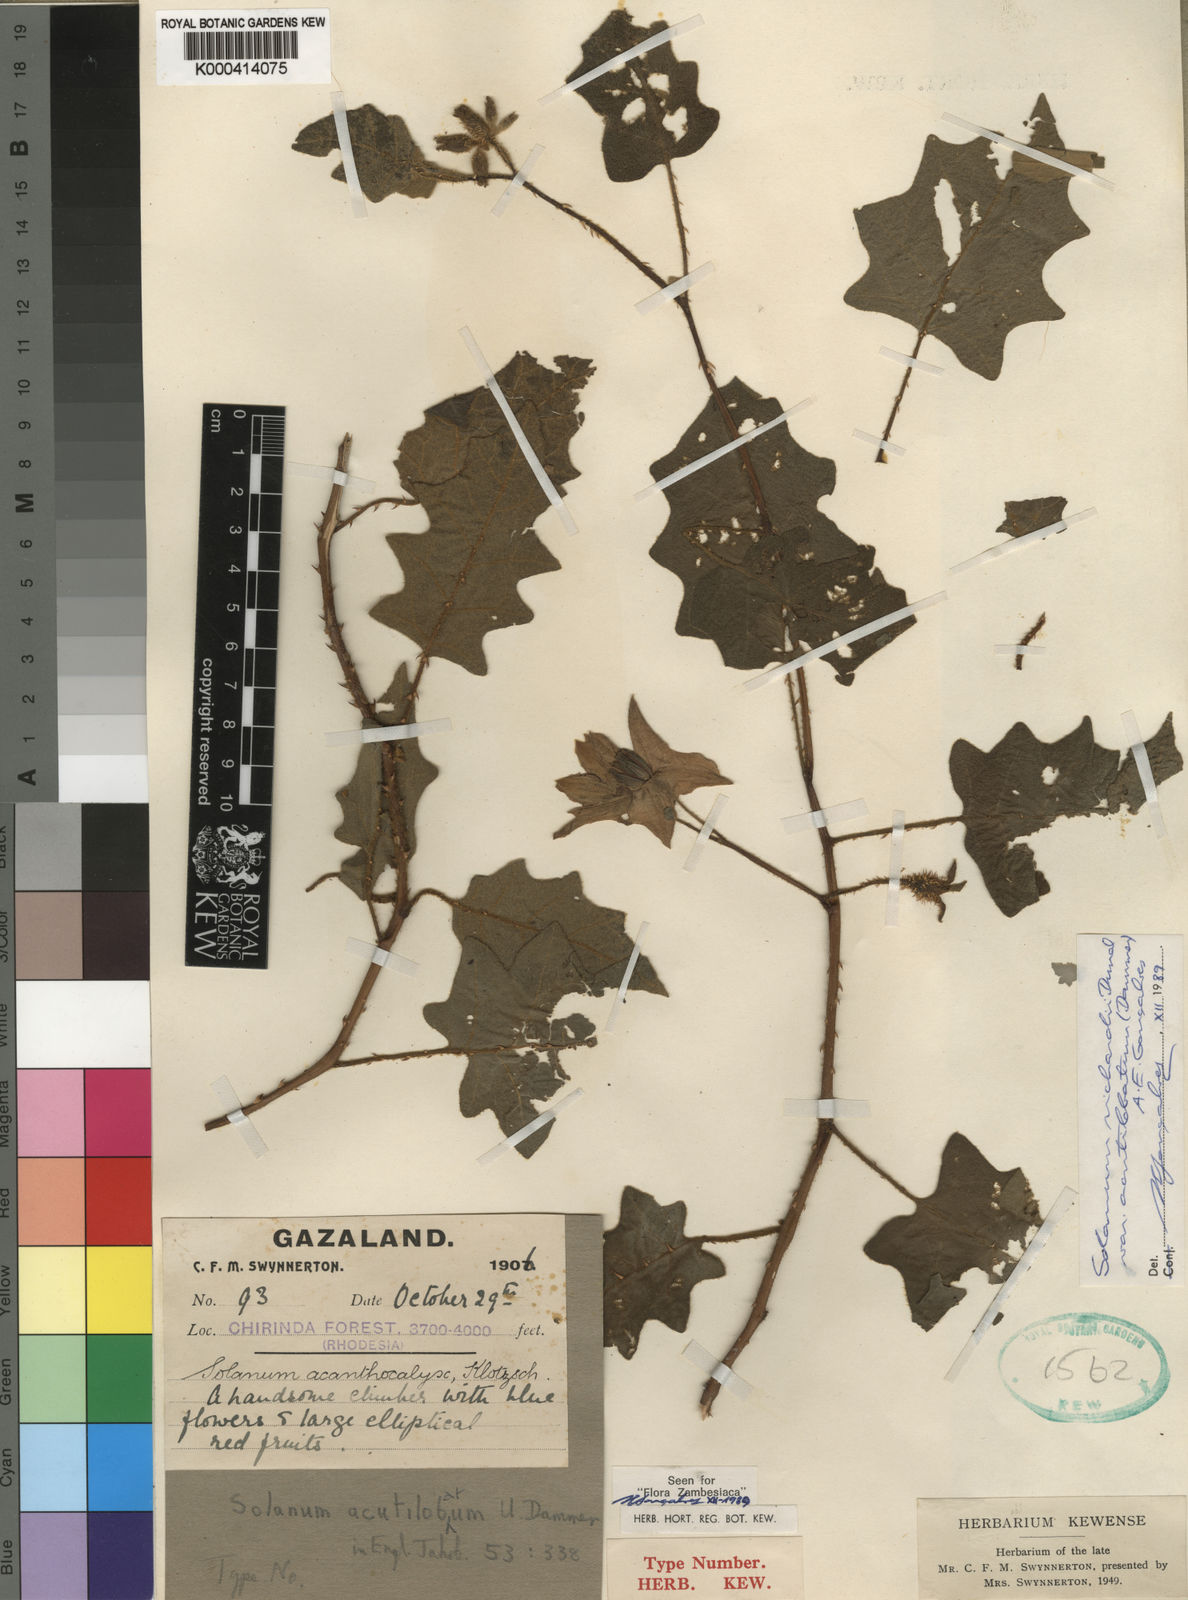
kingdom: Plantae
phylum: Tracheophyta
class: Magnoliopsida
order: Solanales
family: Solanaceae
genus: Solanum
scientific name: Solanum richardii
